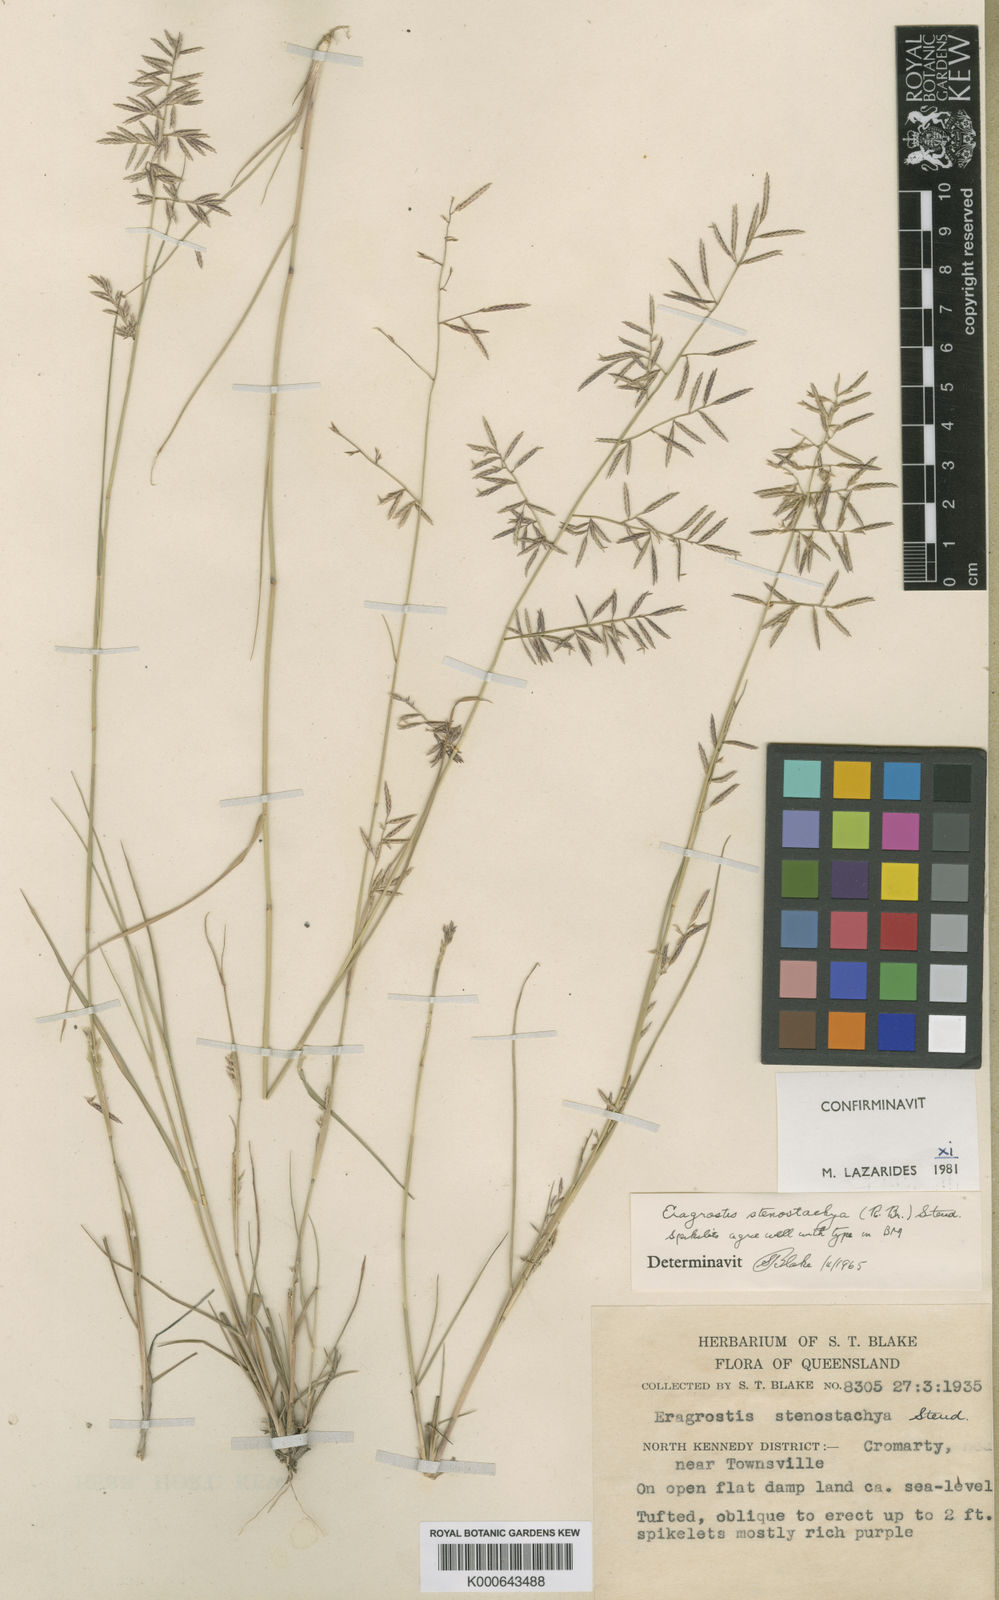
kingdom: Plantae
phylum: Tracheophyta
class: Liliopsida
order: Poales
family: Poaceae
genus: Eragrostis
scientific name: Eragrostis stenostachya
